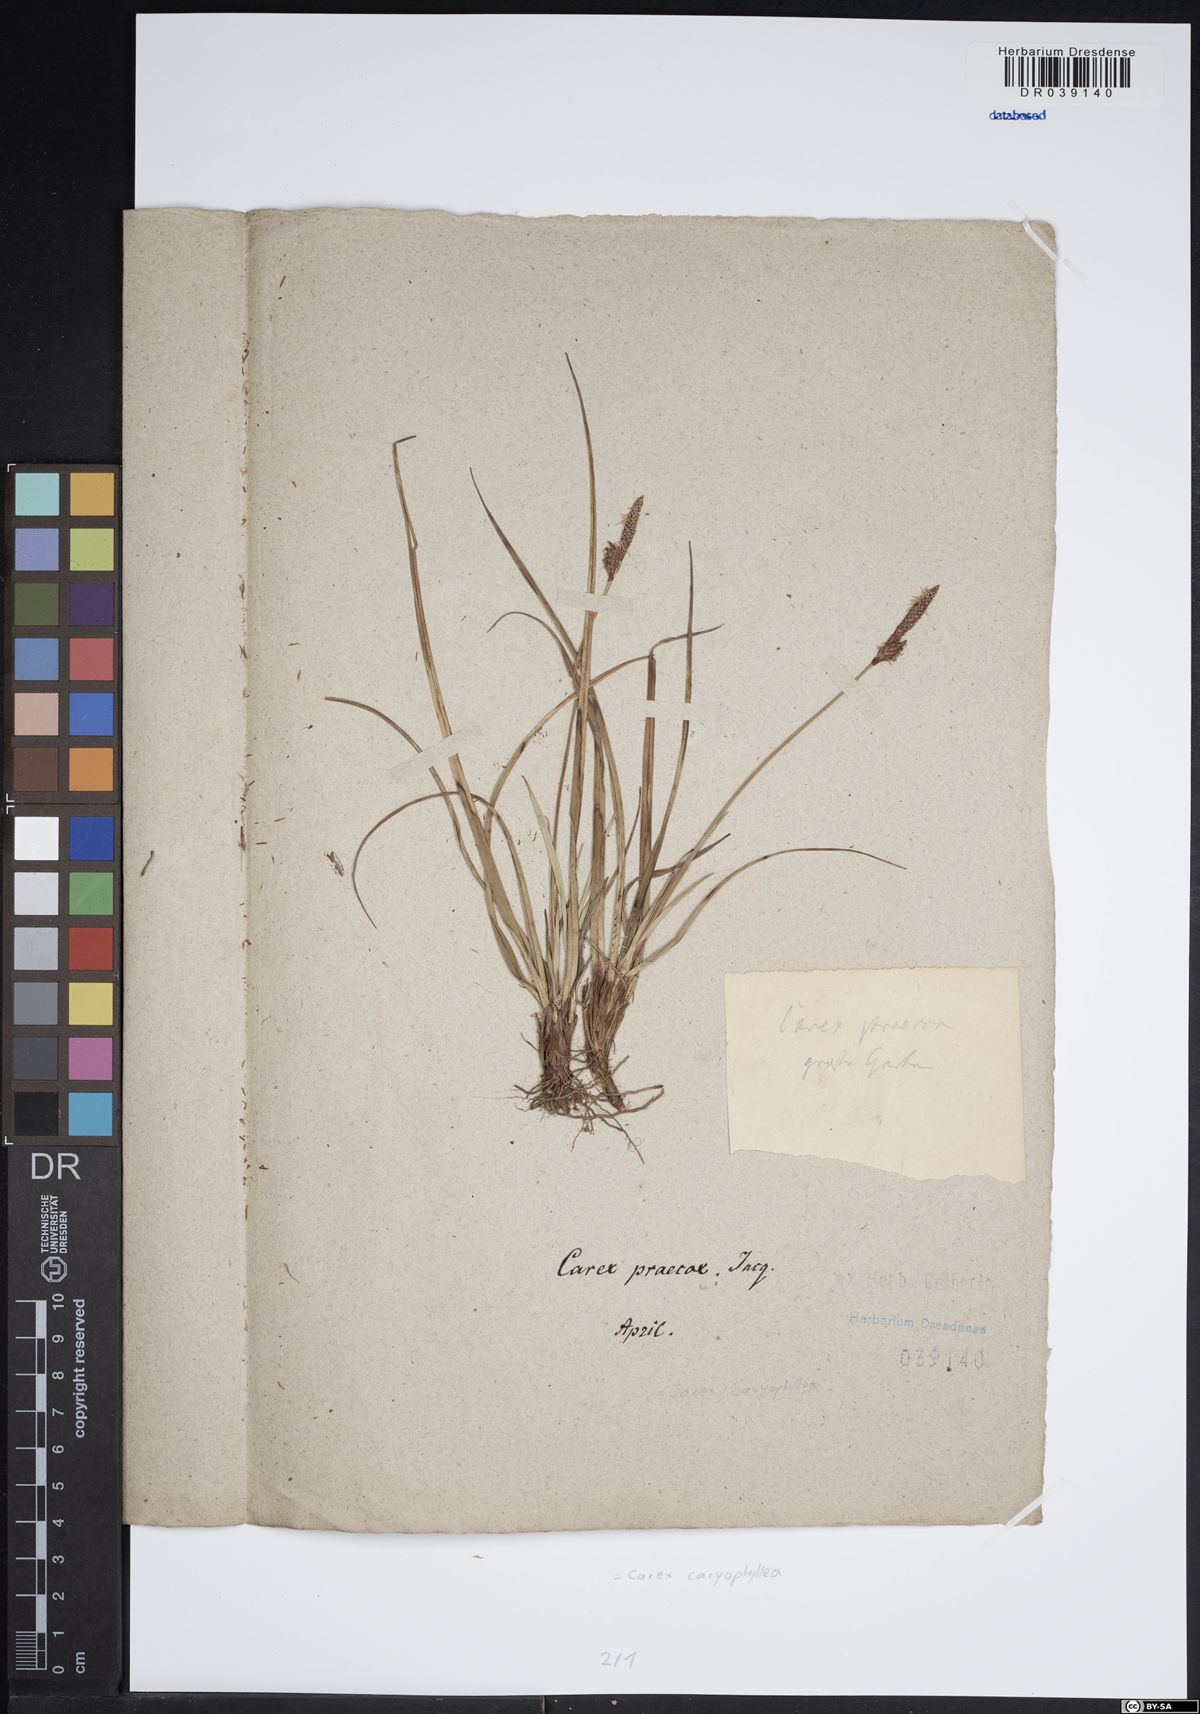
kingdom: Plantae
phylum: Tracheophyta
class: Liliopsida
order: Poales
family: Cyperaceae
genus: Carex
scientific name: Carex caryophyllea
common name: Spring sedge
